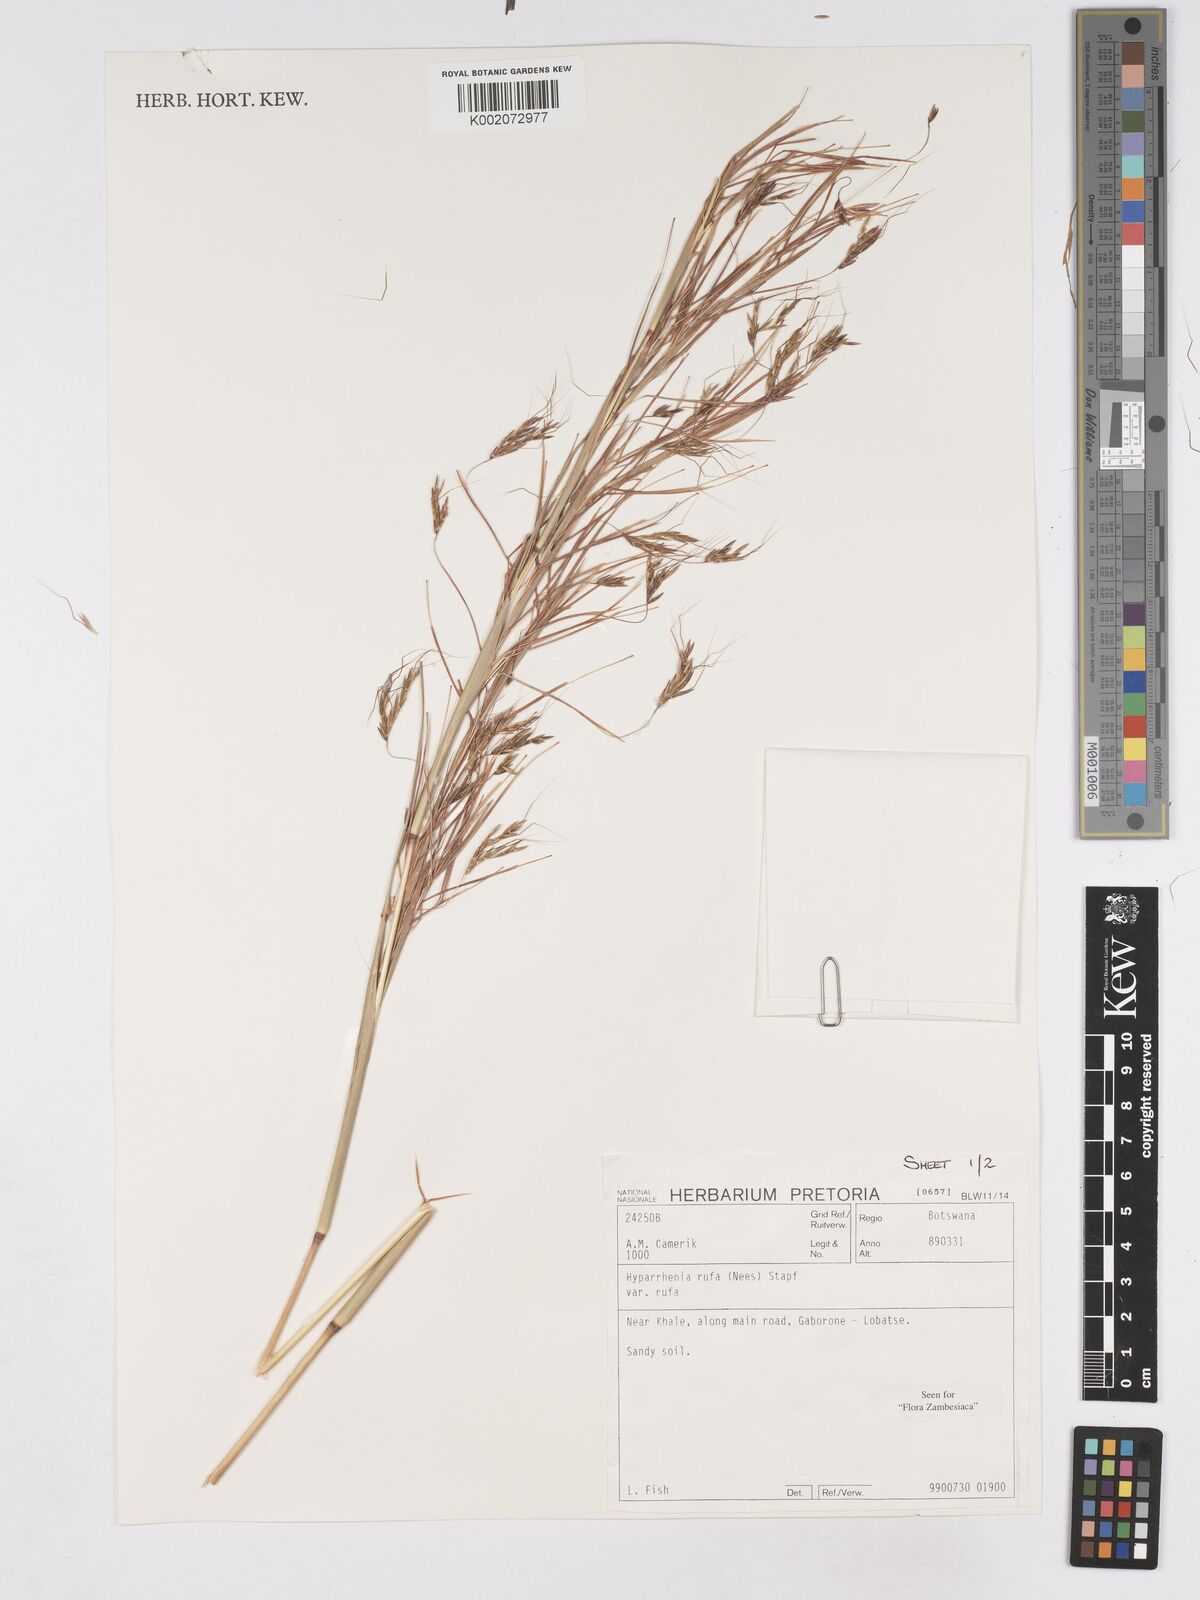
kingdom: Plantae
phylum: Tracheophyta
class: Liliopsida
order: Poales
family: Poaceae
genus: Hyparrhenia
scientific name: Hyparrhenia rufa
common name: Jaraguagrass
